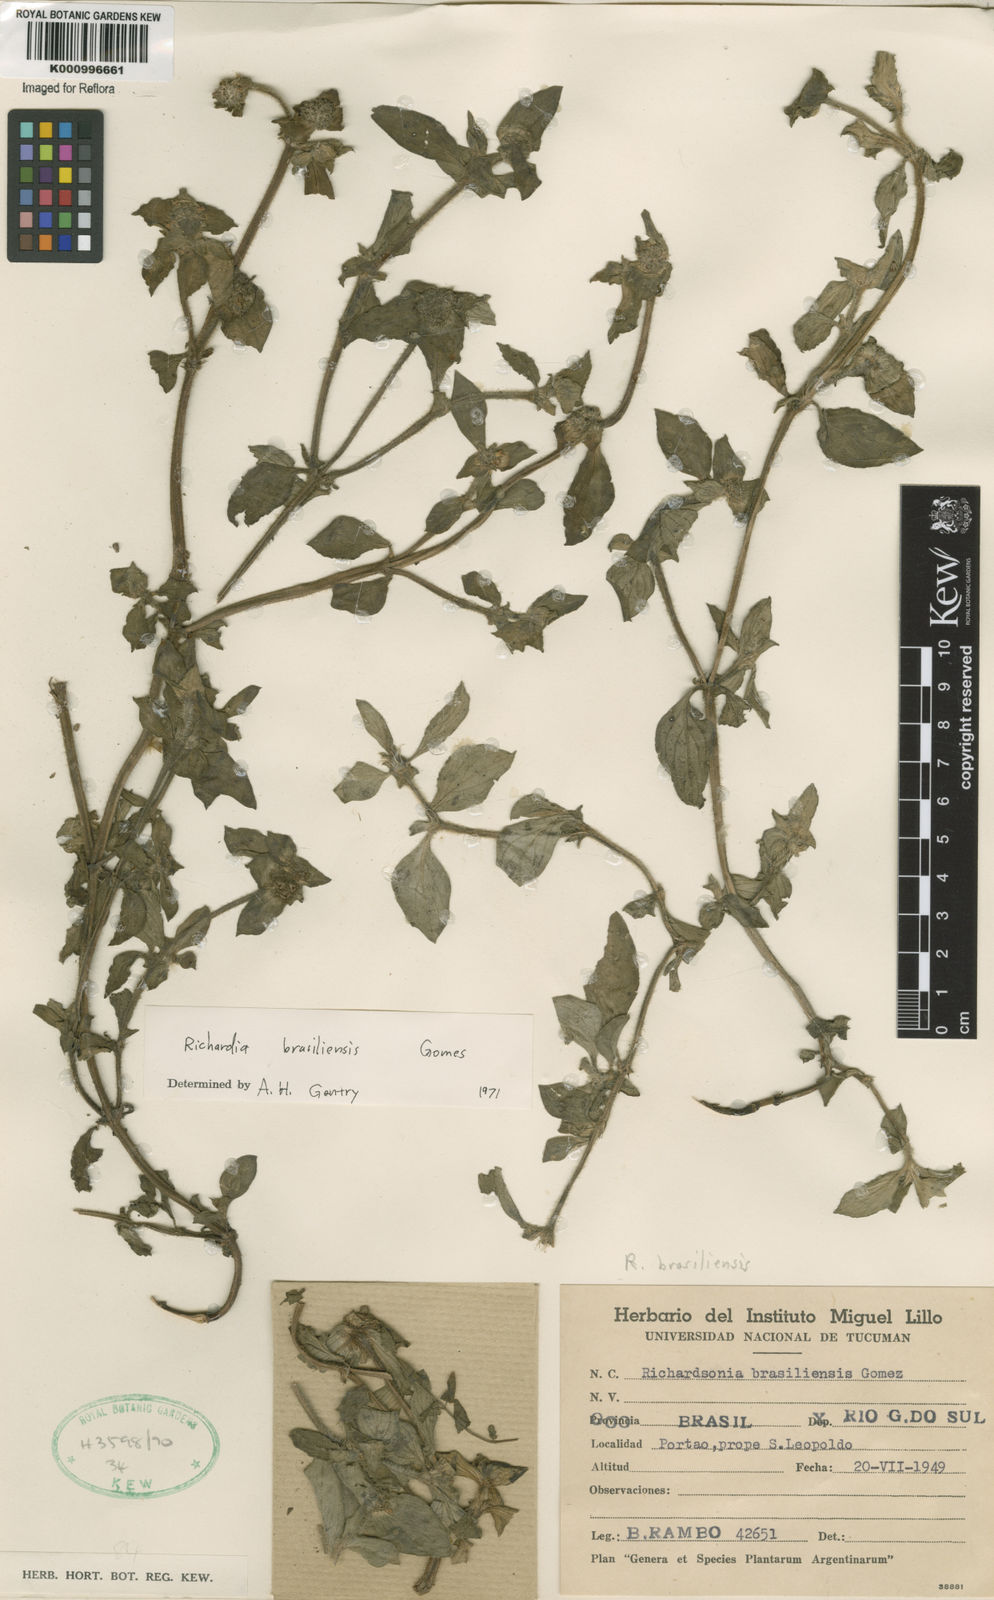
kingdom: Plantae
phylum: Tracheophyta
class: Magnoliopsida
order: Gentianales
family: Rubiaceae
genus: Richardia
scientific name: Richardia brasiliensis
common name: Tropical mexican clover
